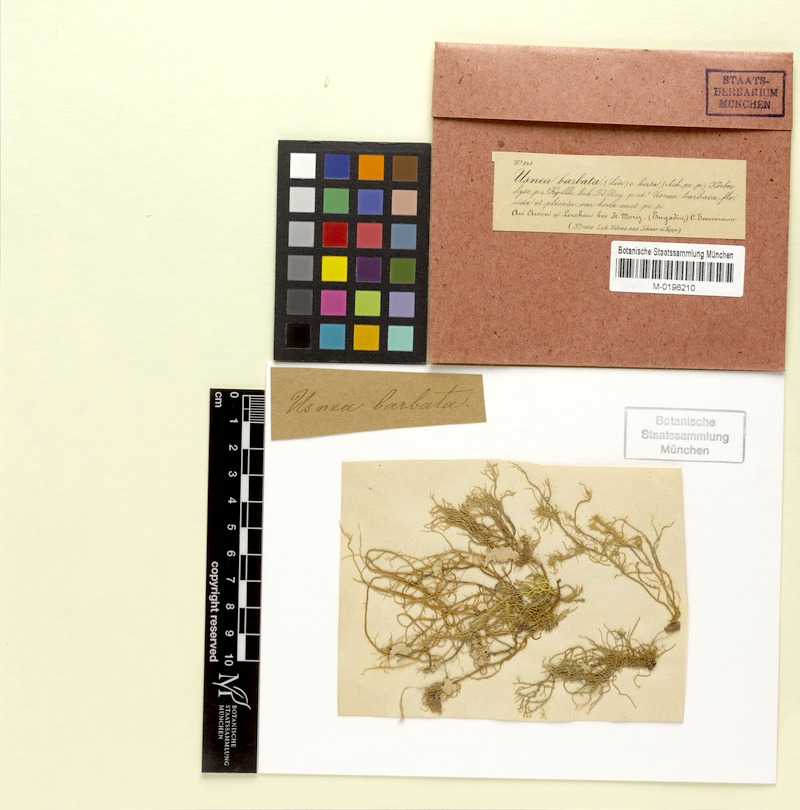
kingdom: Fungi
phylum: Ascomycota
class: Lecanoromycetes
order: Lecanorales
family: Parmeliaceae
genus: Usnea
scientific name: Usnea hirta
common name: Bristly beard lichen
